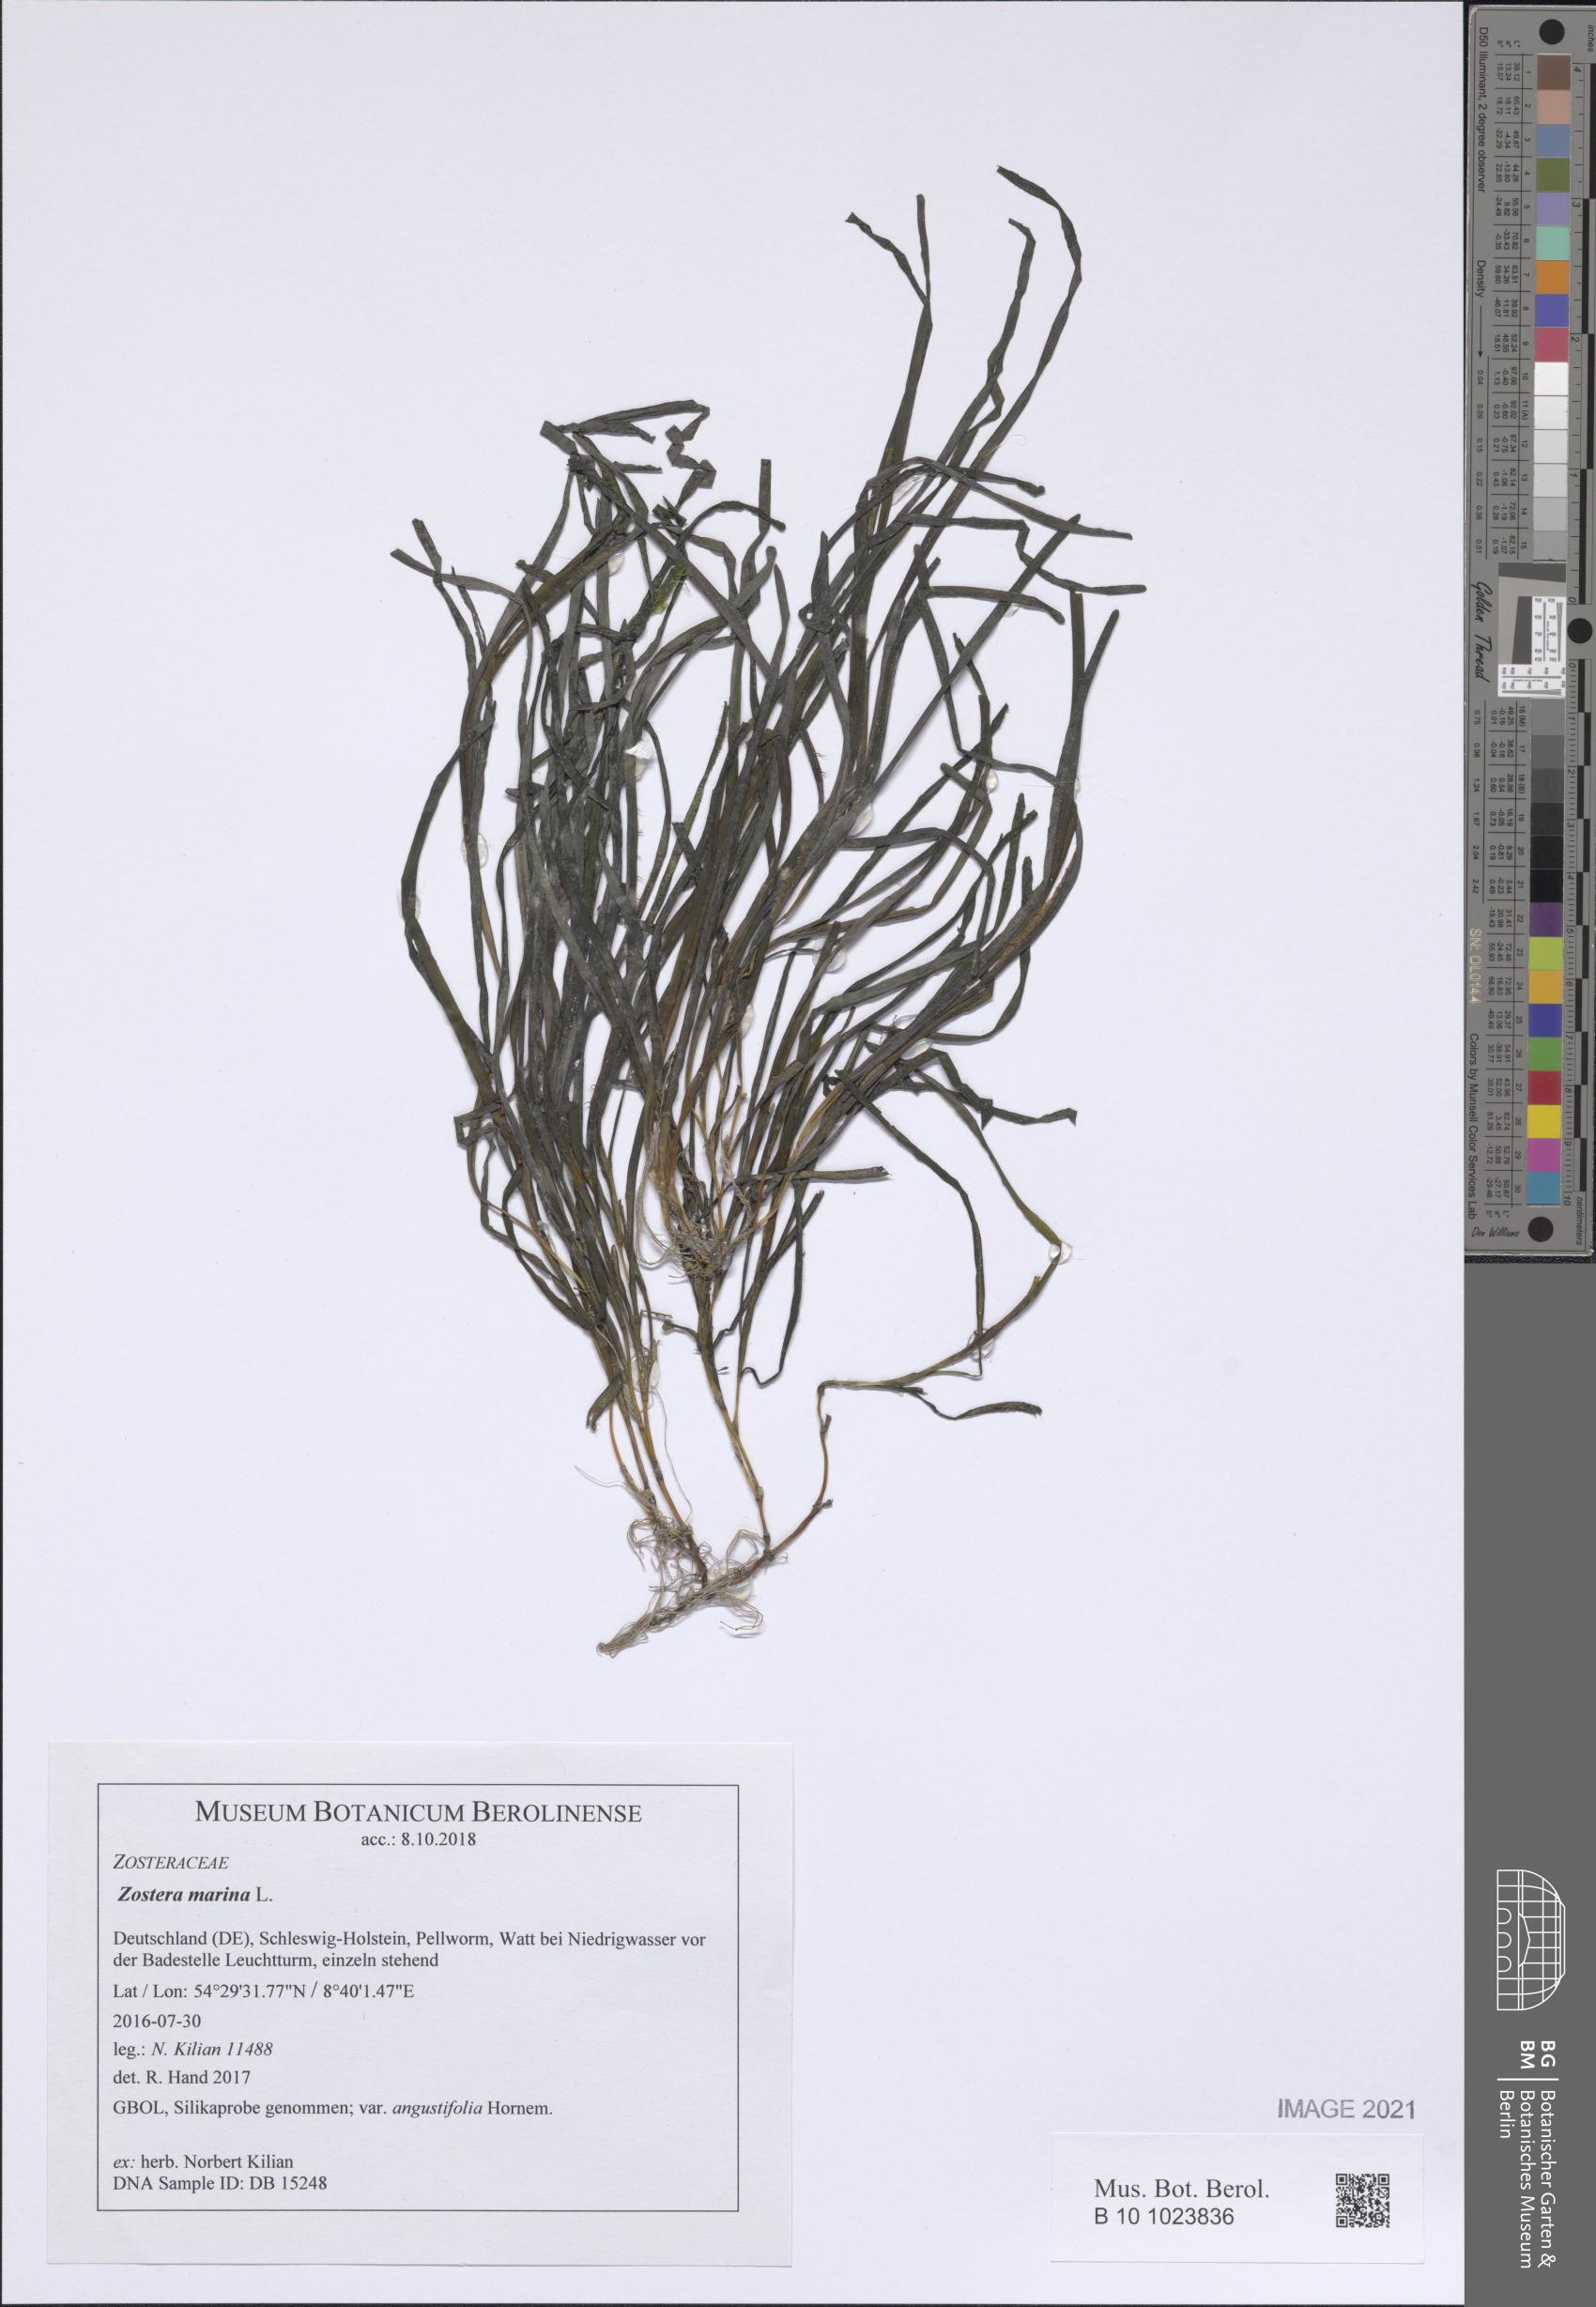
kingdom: Plantae
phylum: Tracheophyta
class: Liliopsida
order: Alismatales
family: Zosteraceae
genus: Zostera
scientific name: Zostera marina
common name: Eelgrass
